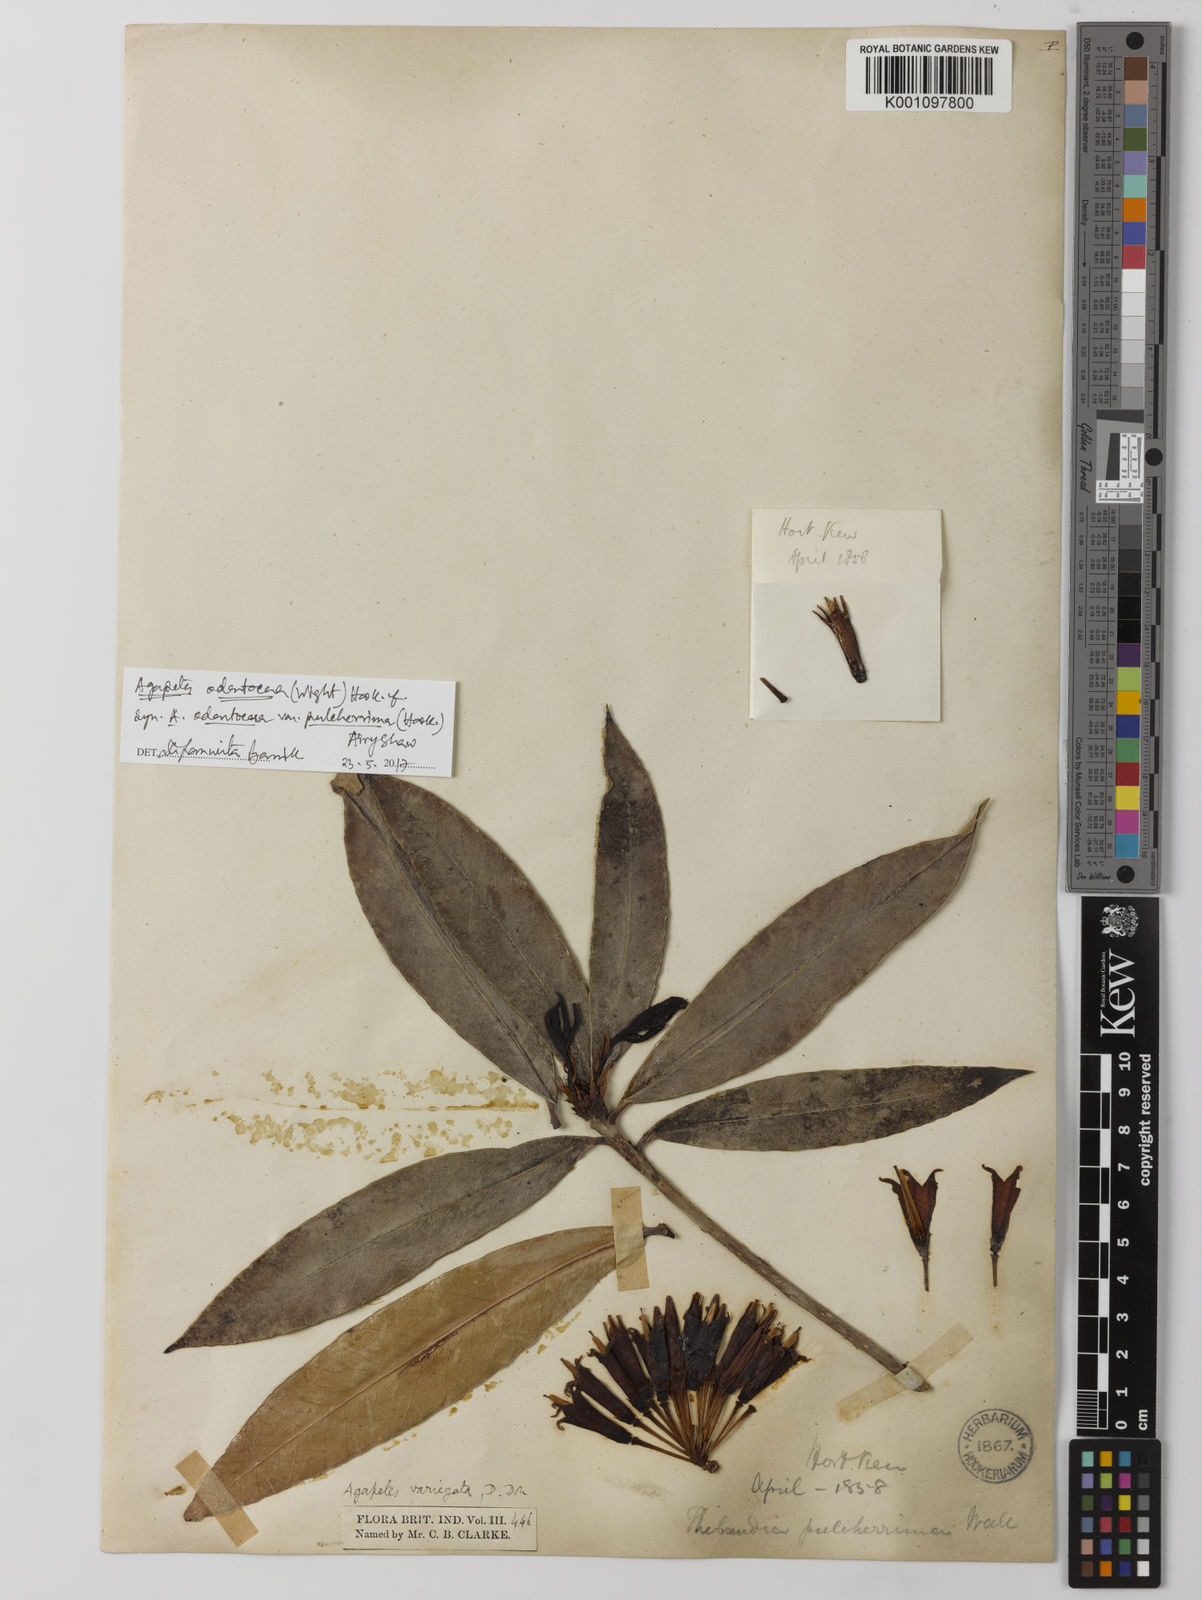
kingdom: Plantae
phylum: Tracheophyta
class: Magnoliopsida
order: Ericales
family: Ericaceae
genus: Agapetes
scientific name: Agapetes odontocera
